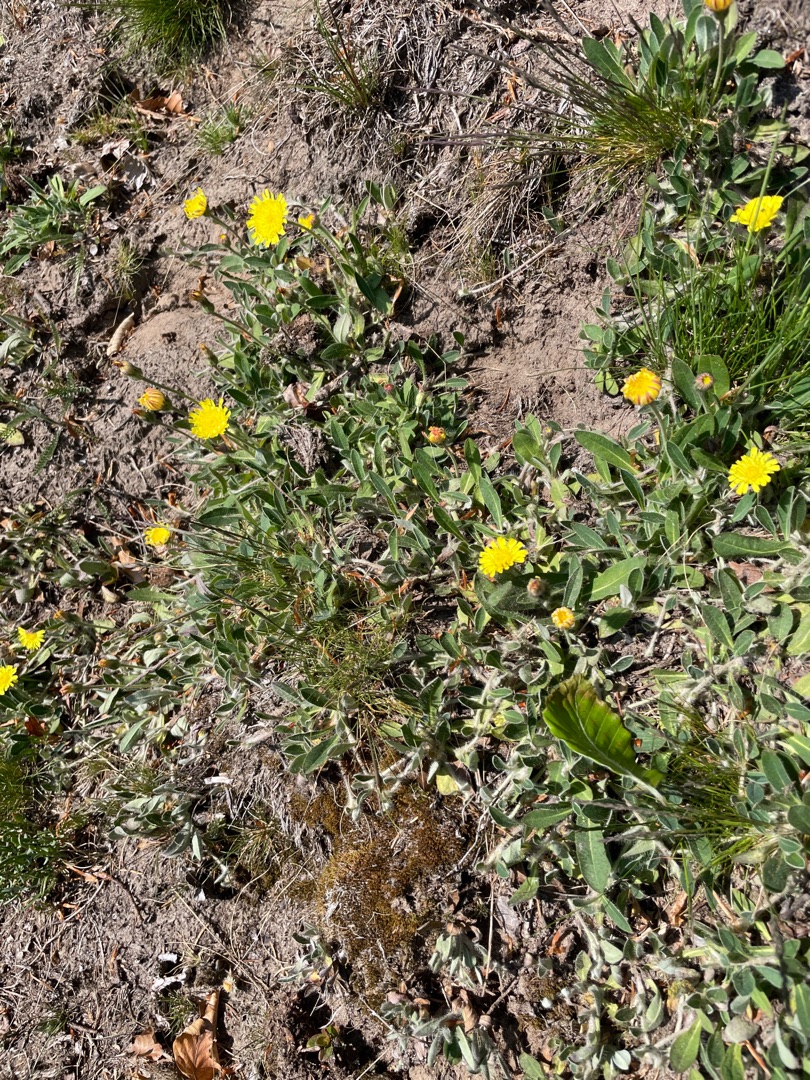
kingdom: Plantae
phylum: Tracheophyta
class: Magnoliopsida
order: Asterales
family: Asteraceae
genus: Pilosella
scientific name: Pilosella officinarum
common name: Håret høgeurt
